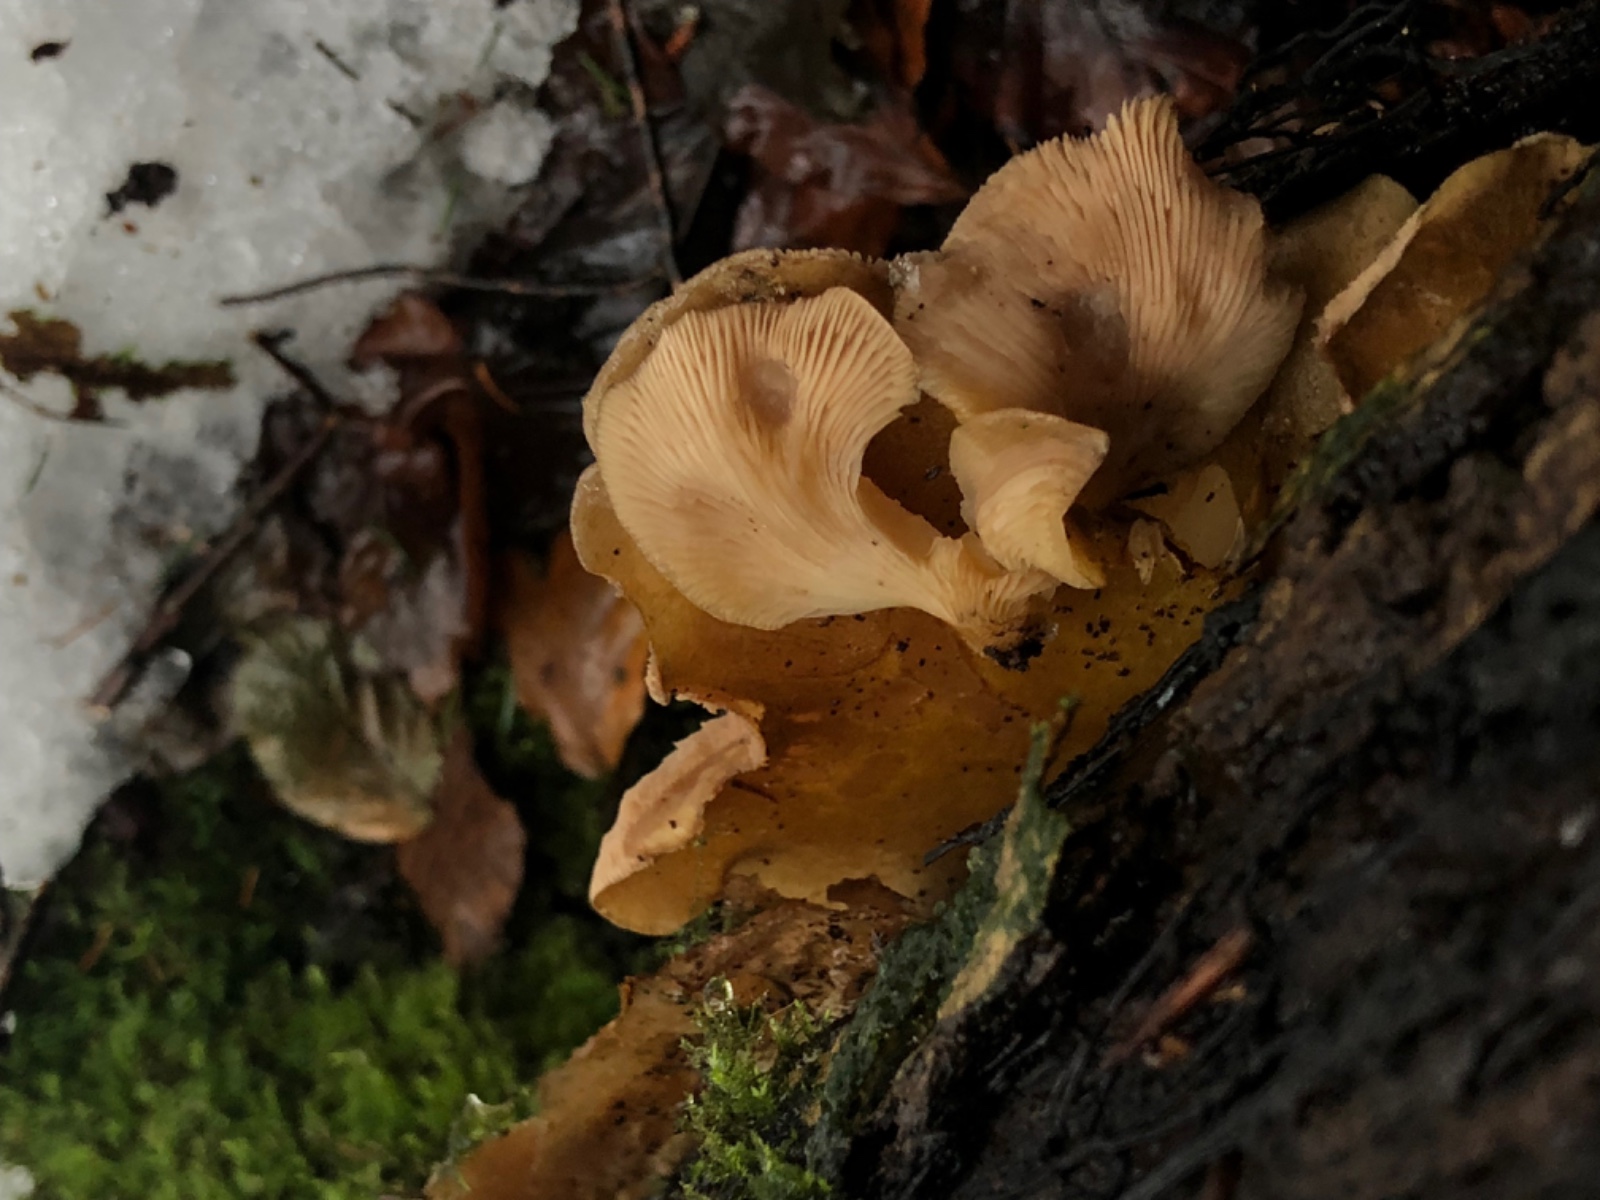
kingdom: Fungi
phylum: Basidiomycota
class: Agaricomycetes
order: Agaricales
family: Pleurotaceae
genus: Pleurotus
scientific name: Pleurotus ostreatus
